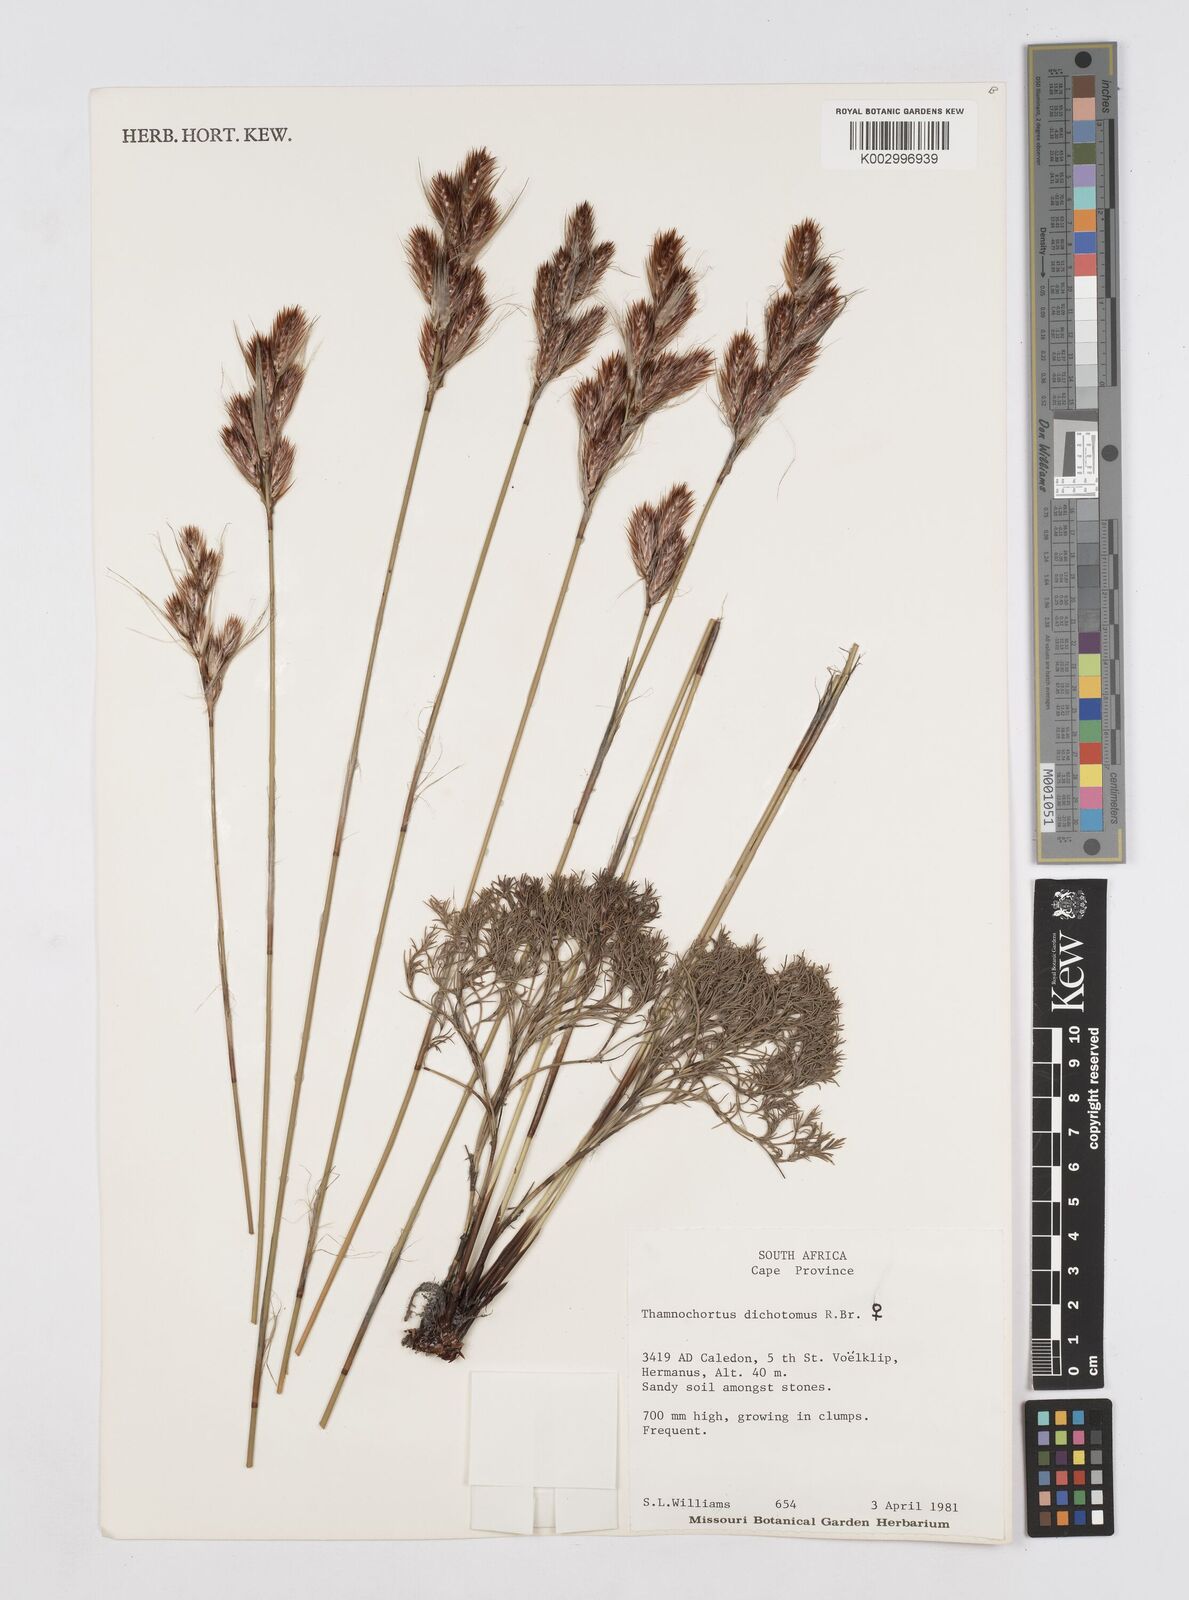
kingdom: Plantae
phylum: Tracheophyta
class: Liliopsida
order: Poales
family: Restionaceae
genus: Thamnochortus
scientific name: Thamnochortus lucens
